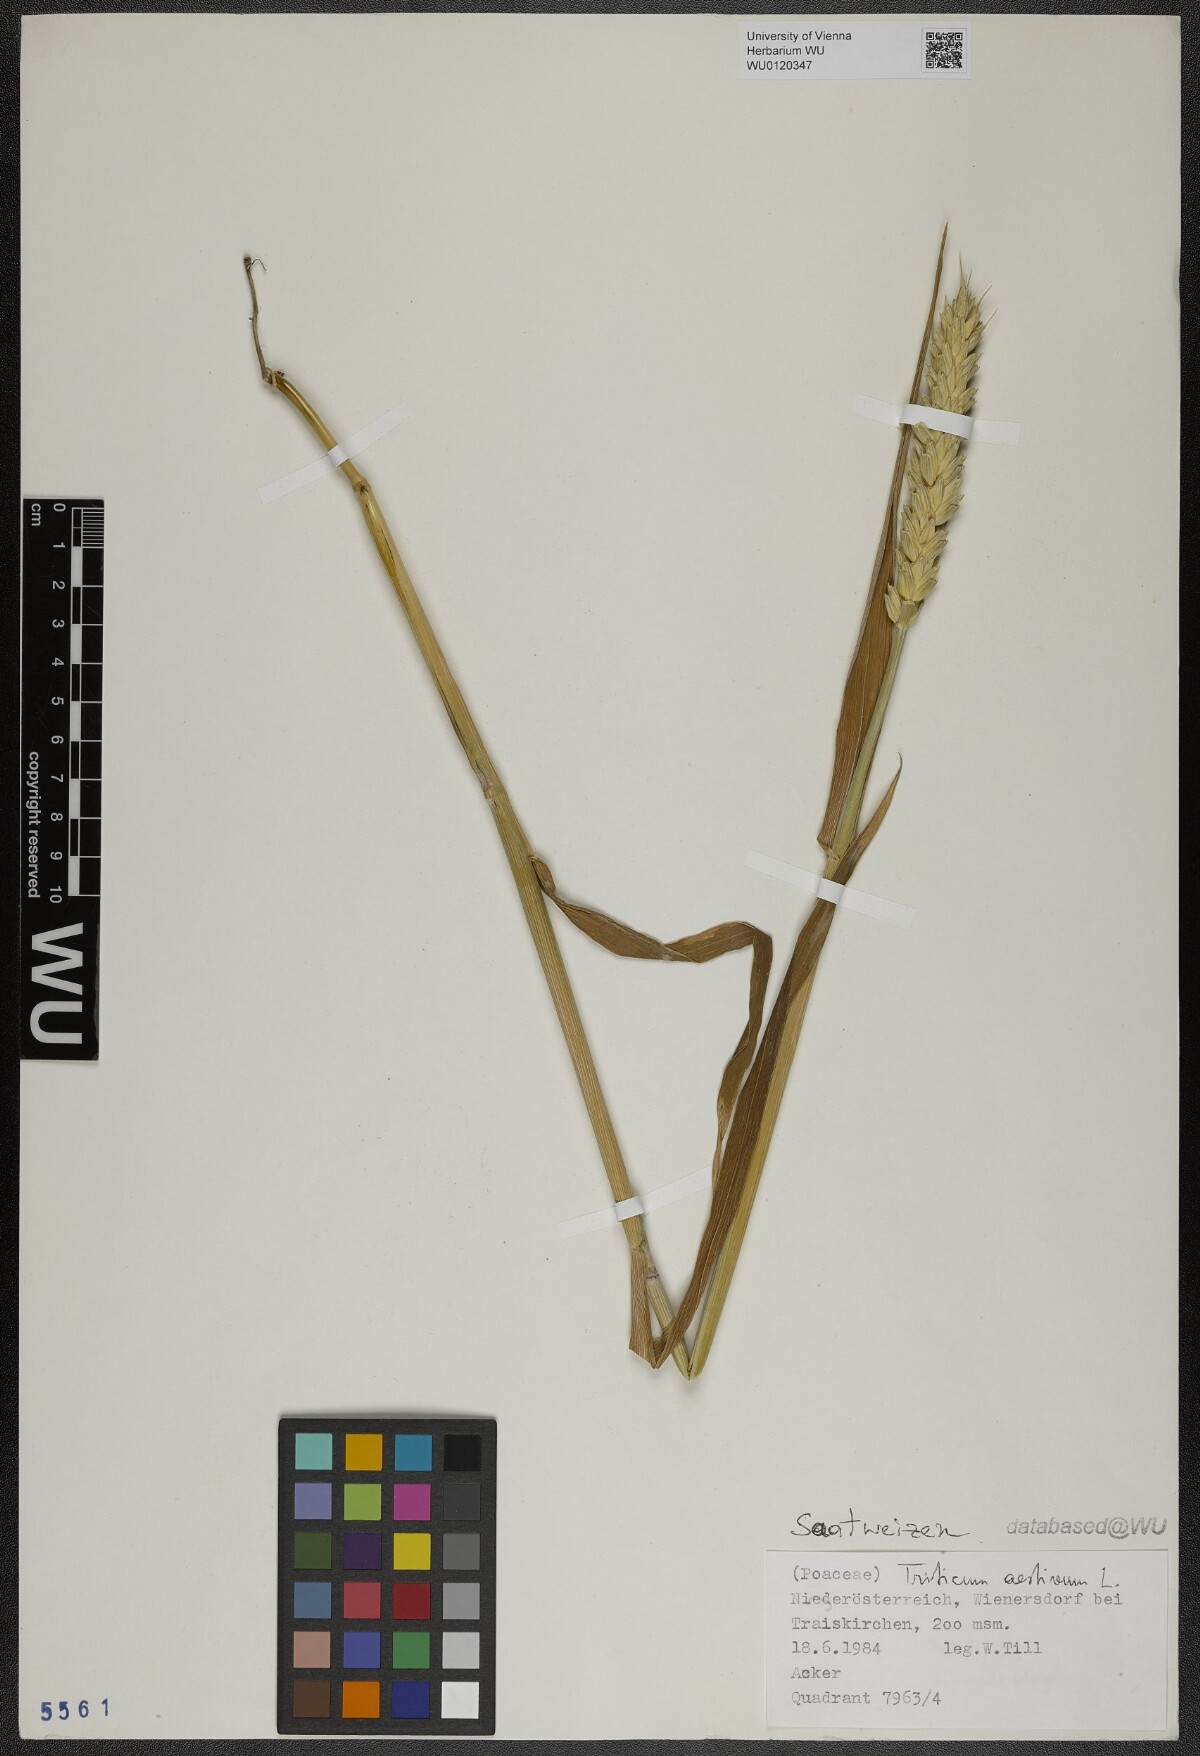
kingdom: Plantae
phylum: Tracheophyta
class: Liliopsida
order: Poales
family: Poaceae
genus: Triticum
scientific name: Triticum aestivum
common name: Common wheat
